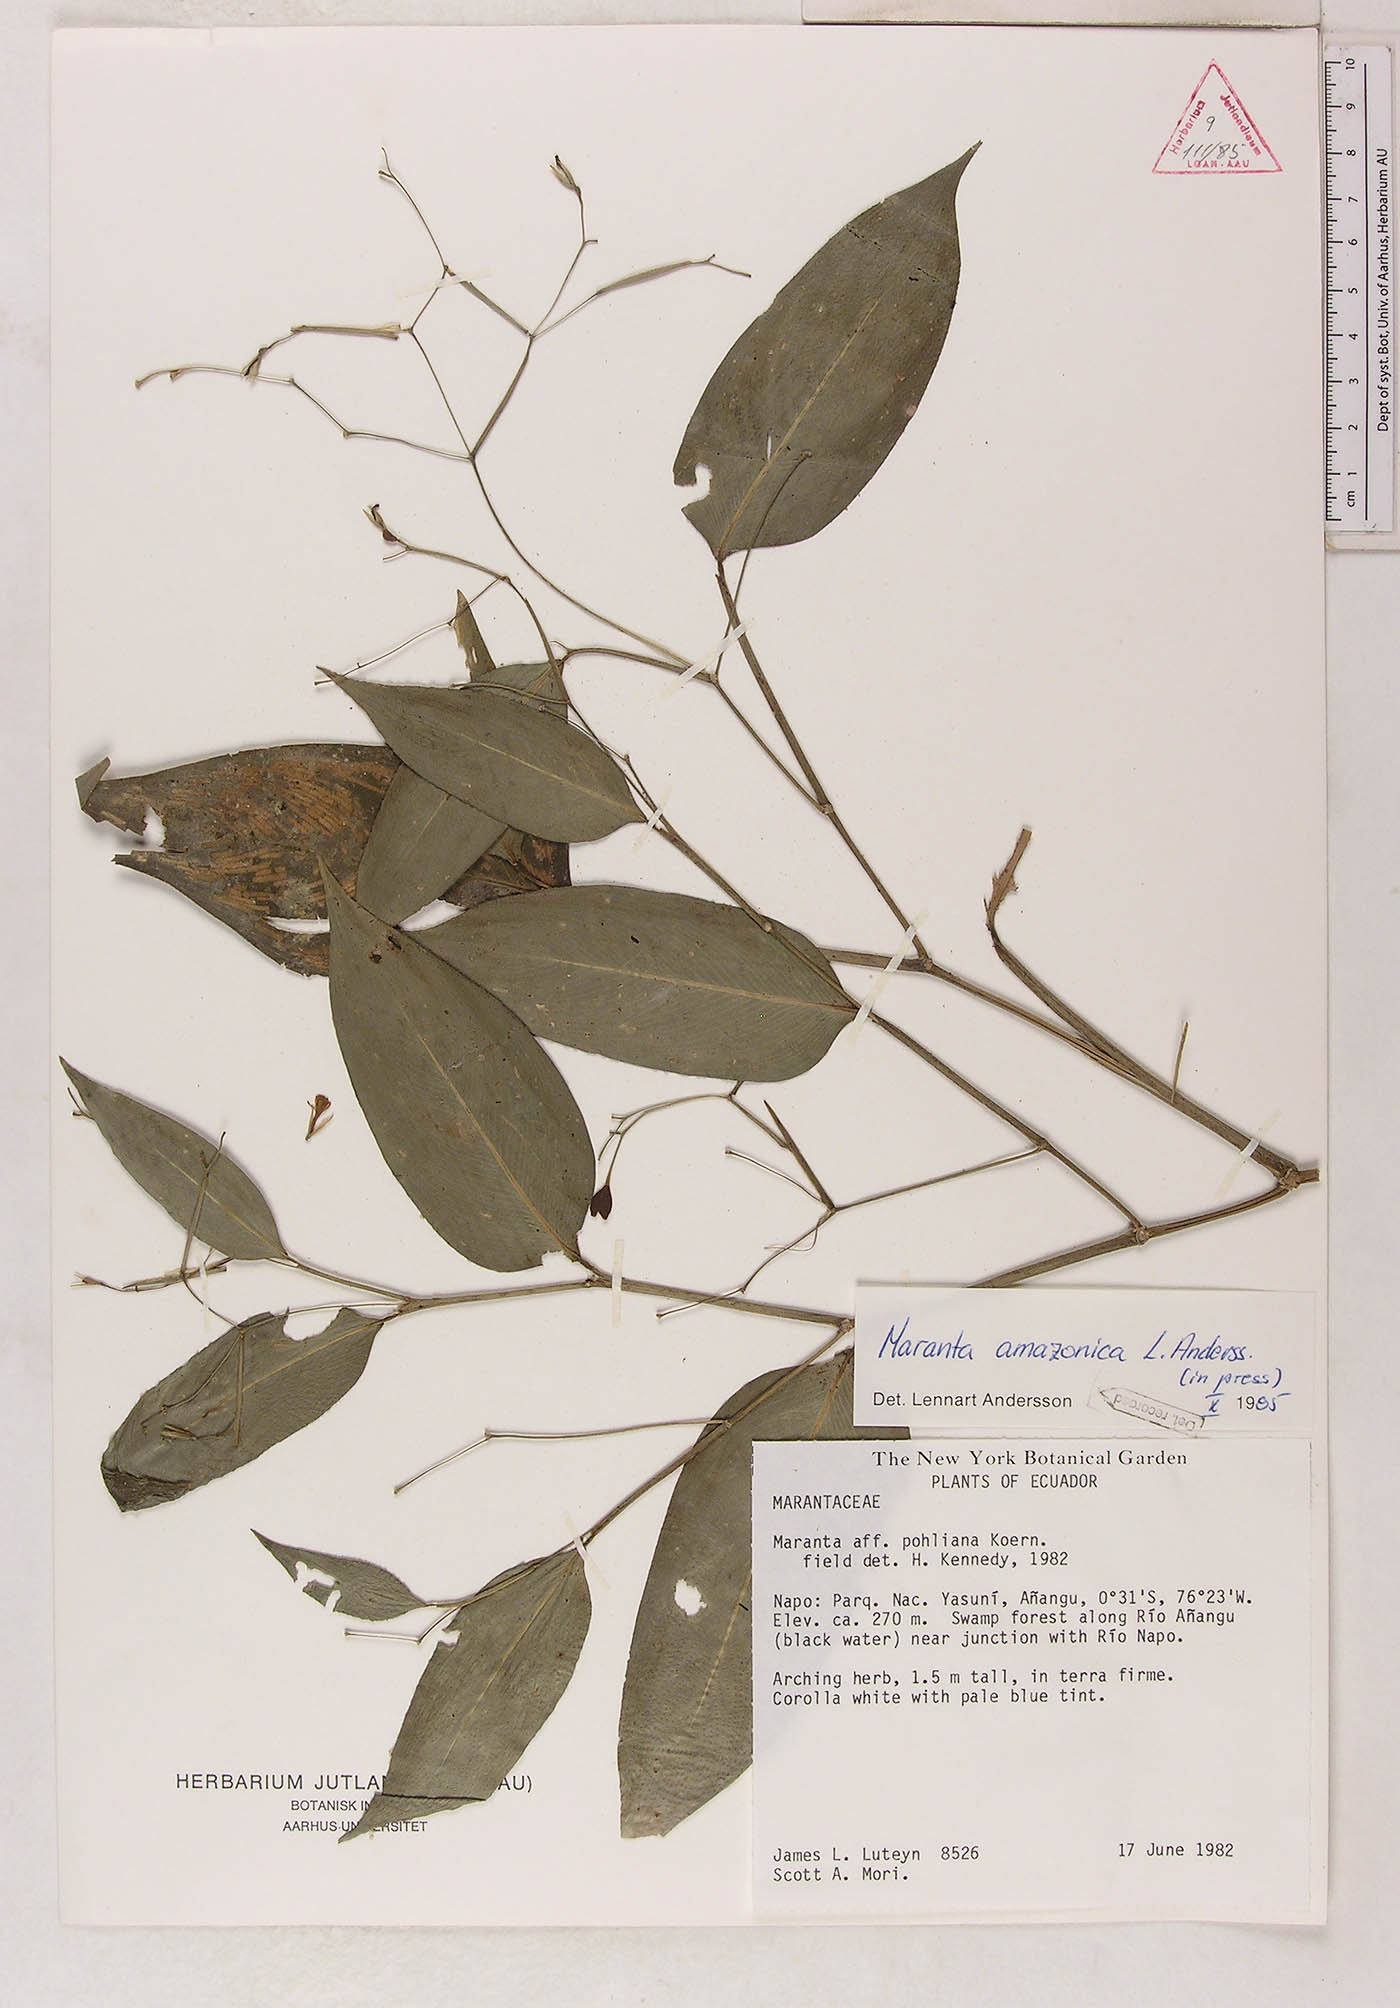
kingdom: Plantae
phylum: Tracheophyta
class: Liliopsida
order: Zingiberales
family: Marantaceae
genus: Maranta
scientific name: Maranta amazonica
